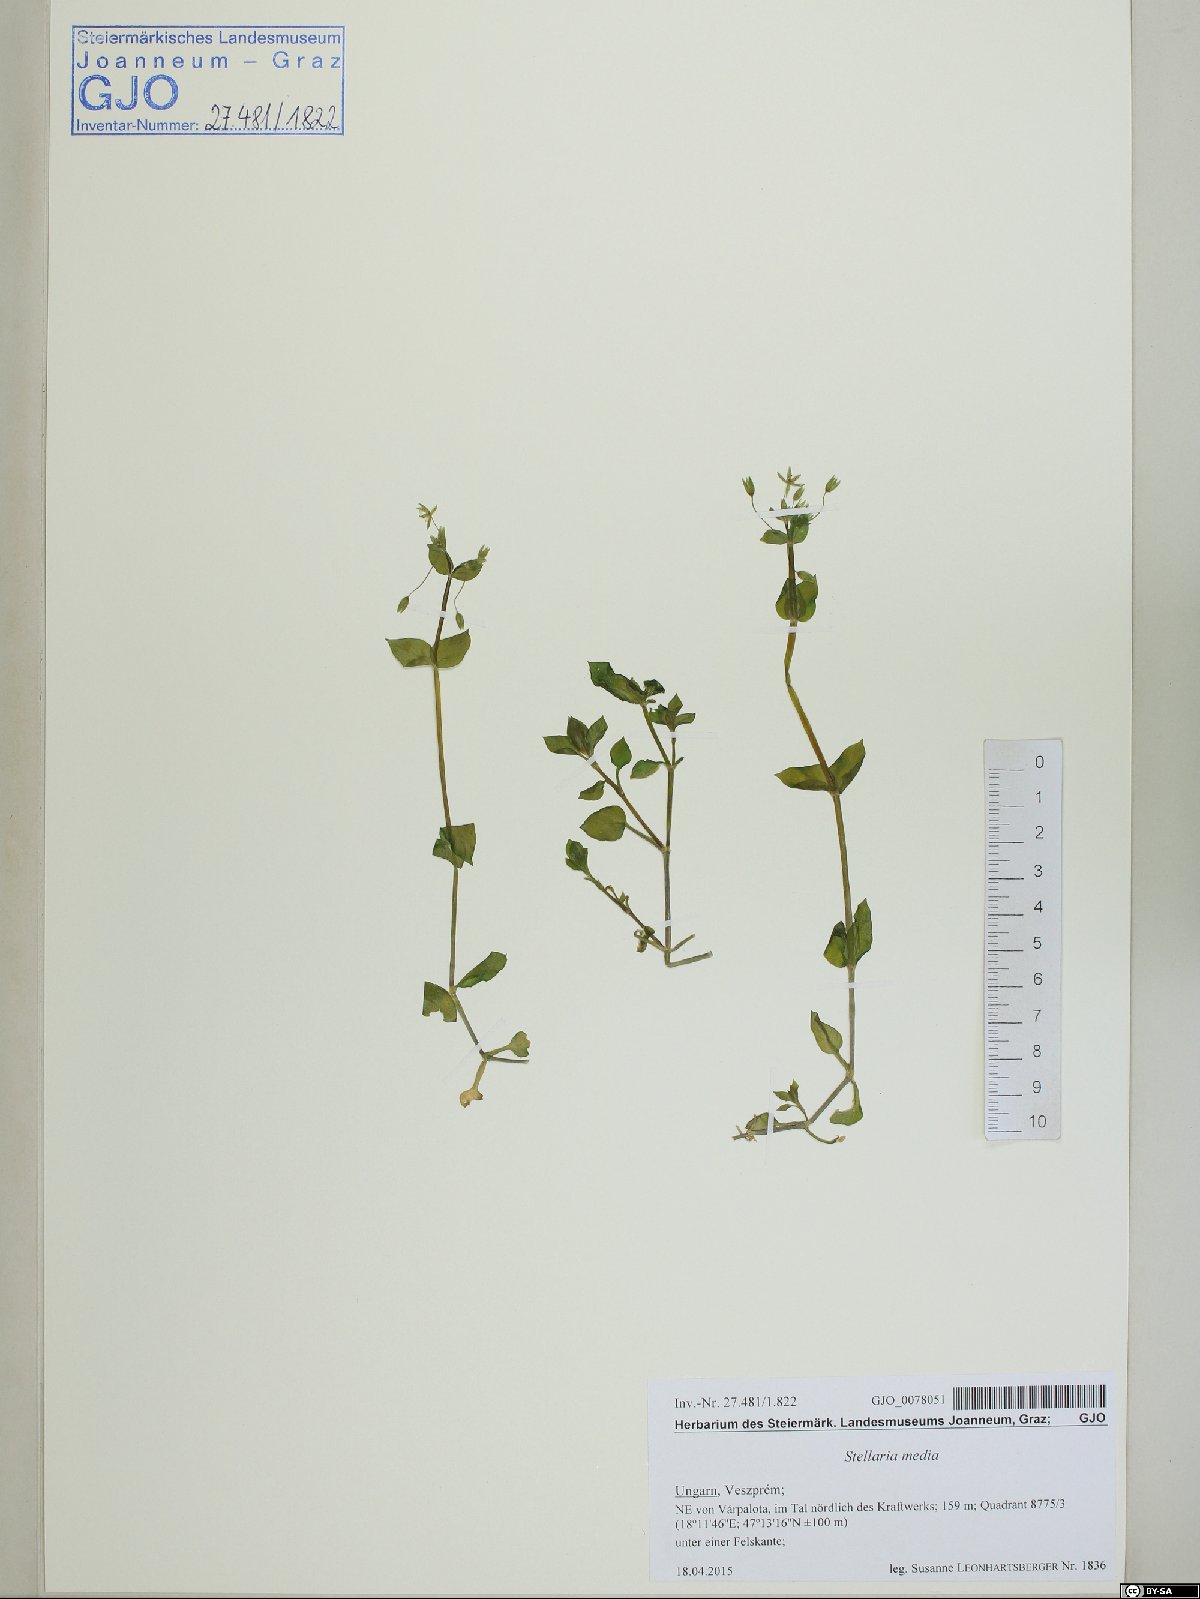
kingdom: Plantae
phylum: Tracheophyta
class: Magnoliopsida
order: Caryophyllales
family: Caryophyllaceae
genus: Stellaria
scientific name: Stellaria media
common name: Common chickweed
